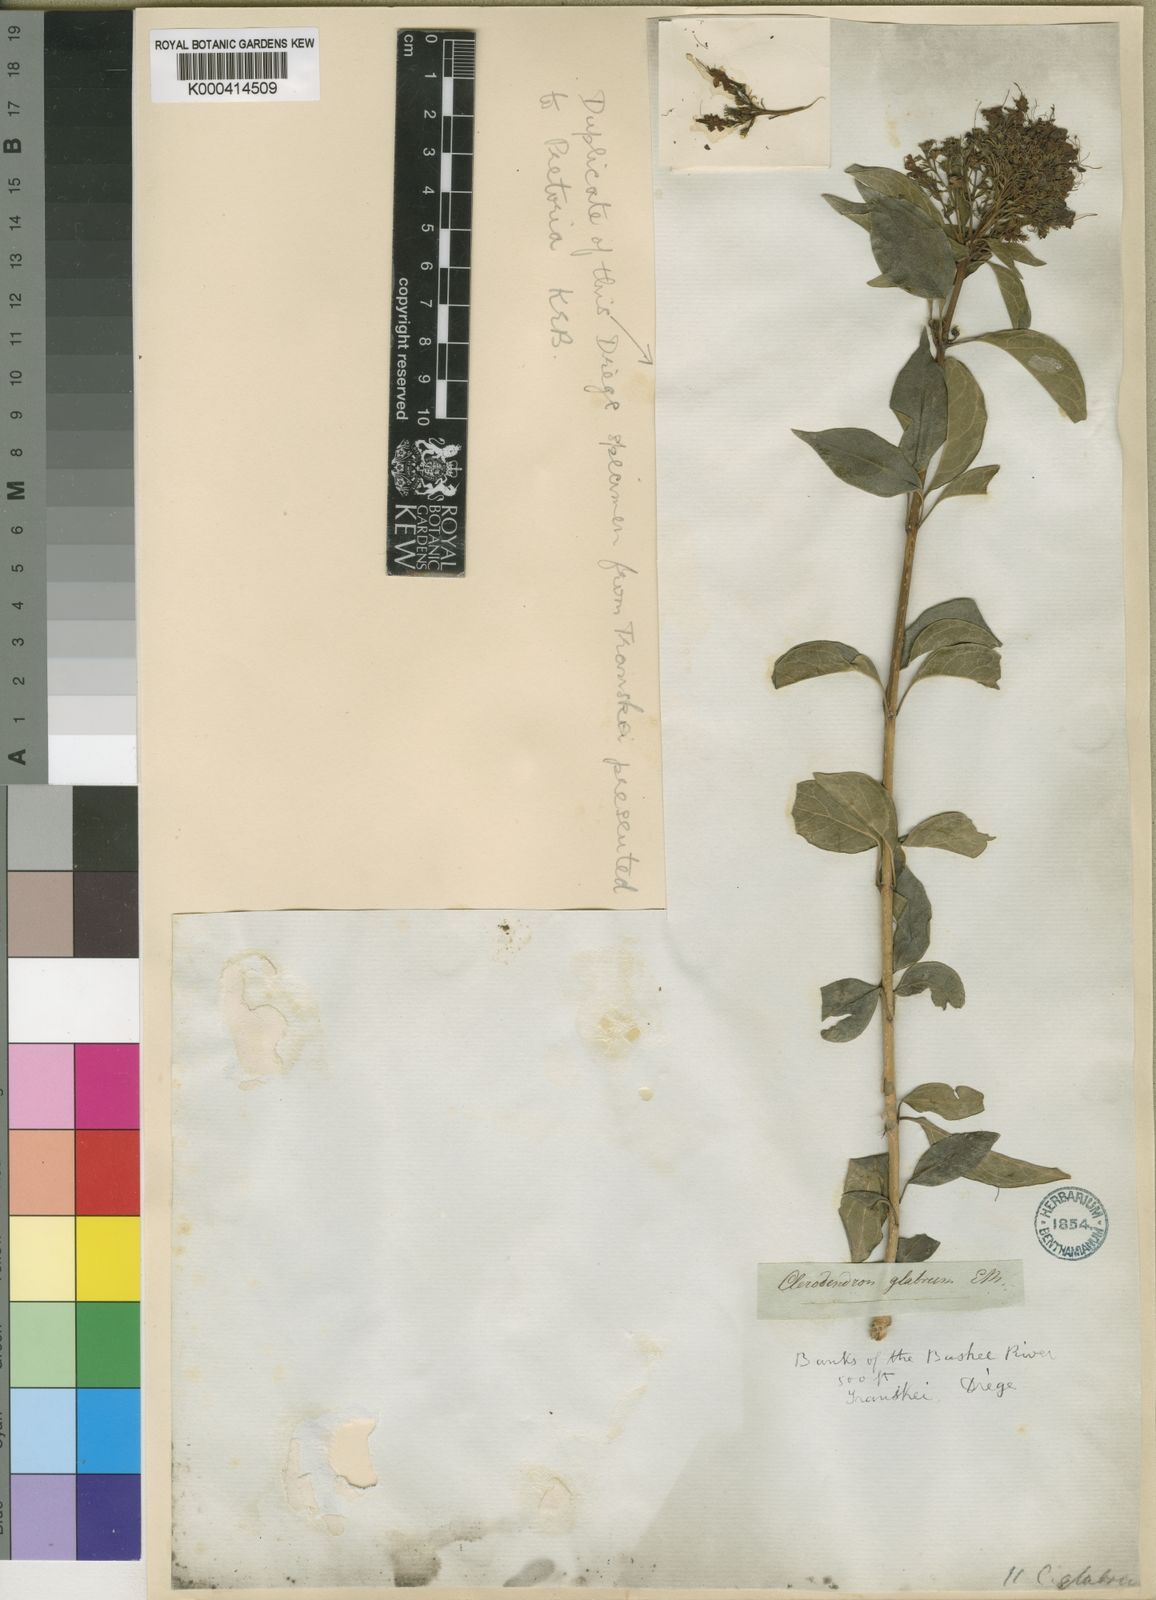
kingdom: Plantae
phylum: Tracheophyta
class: Magnoliopsida
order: Lamiales
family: Lamiaceae
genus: Volkameria
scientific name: Volkameria glabra
